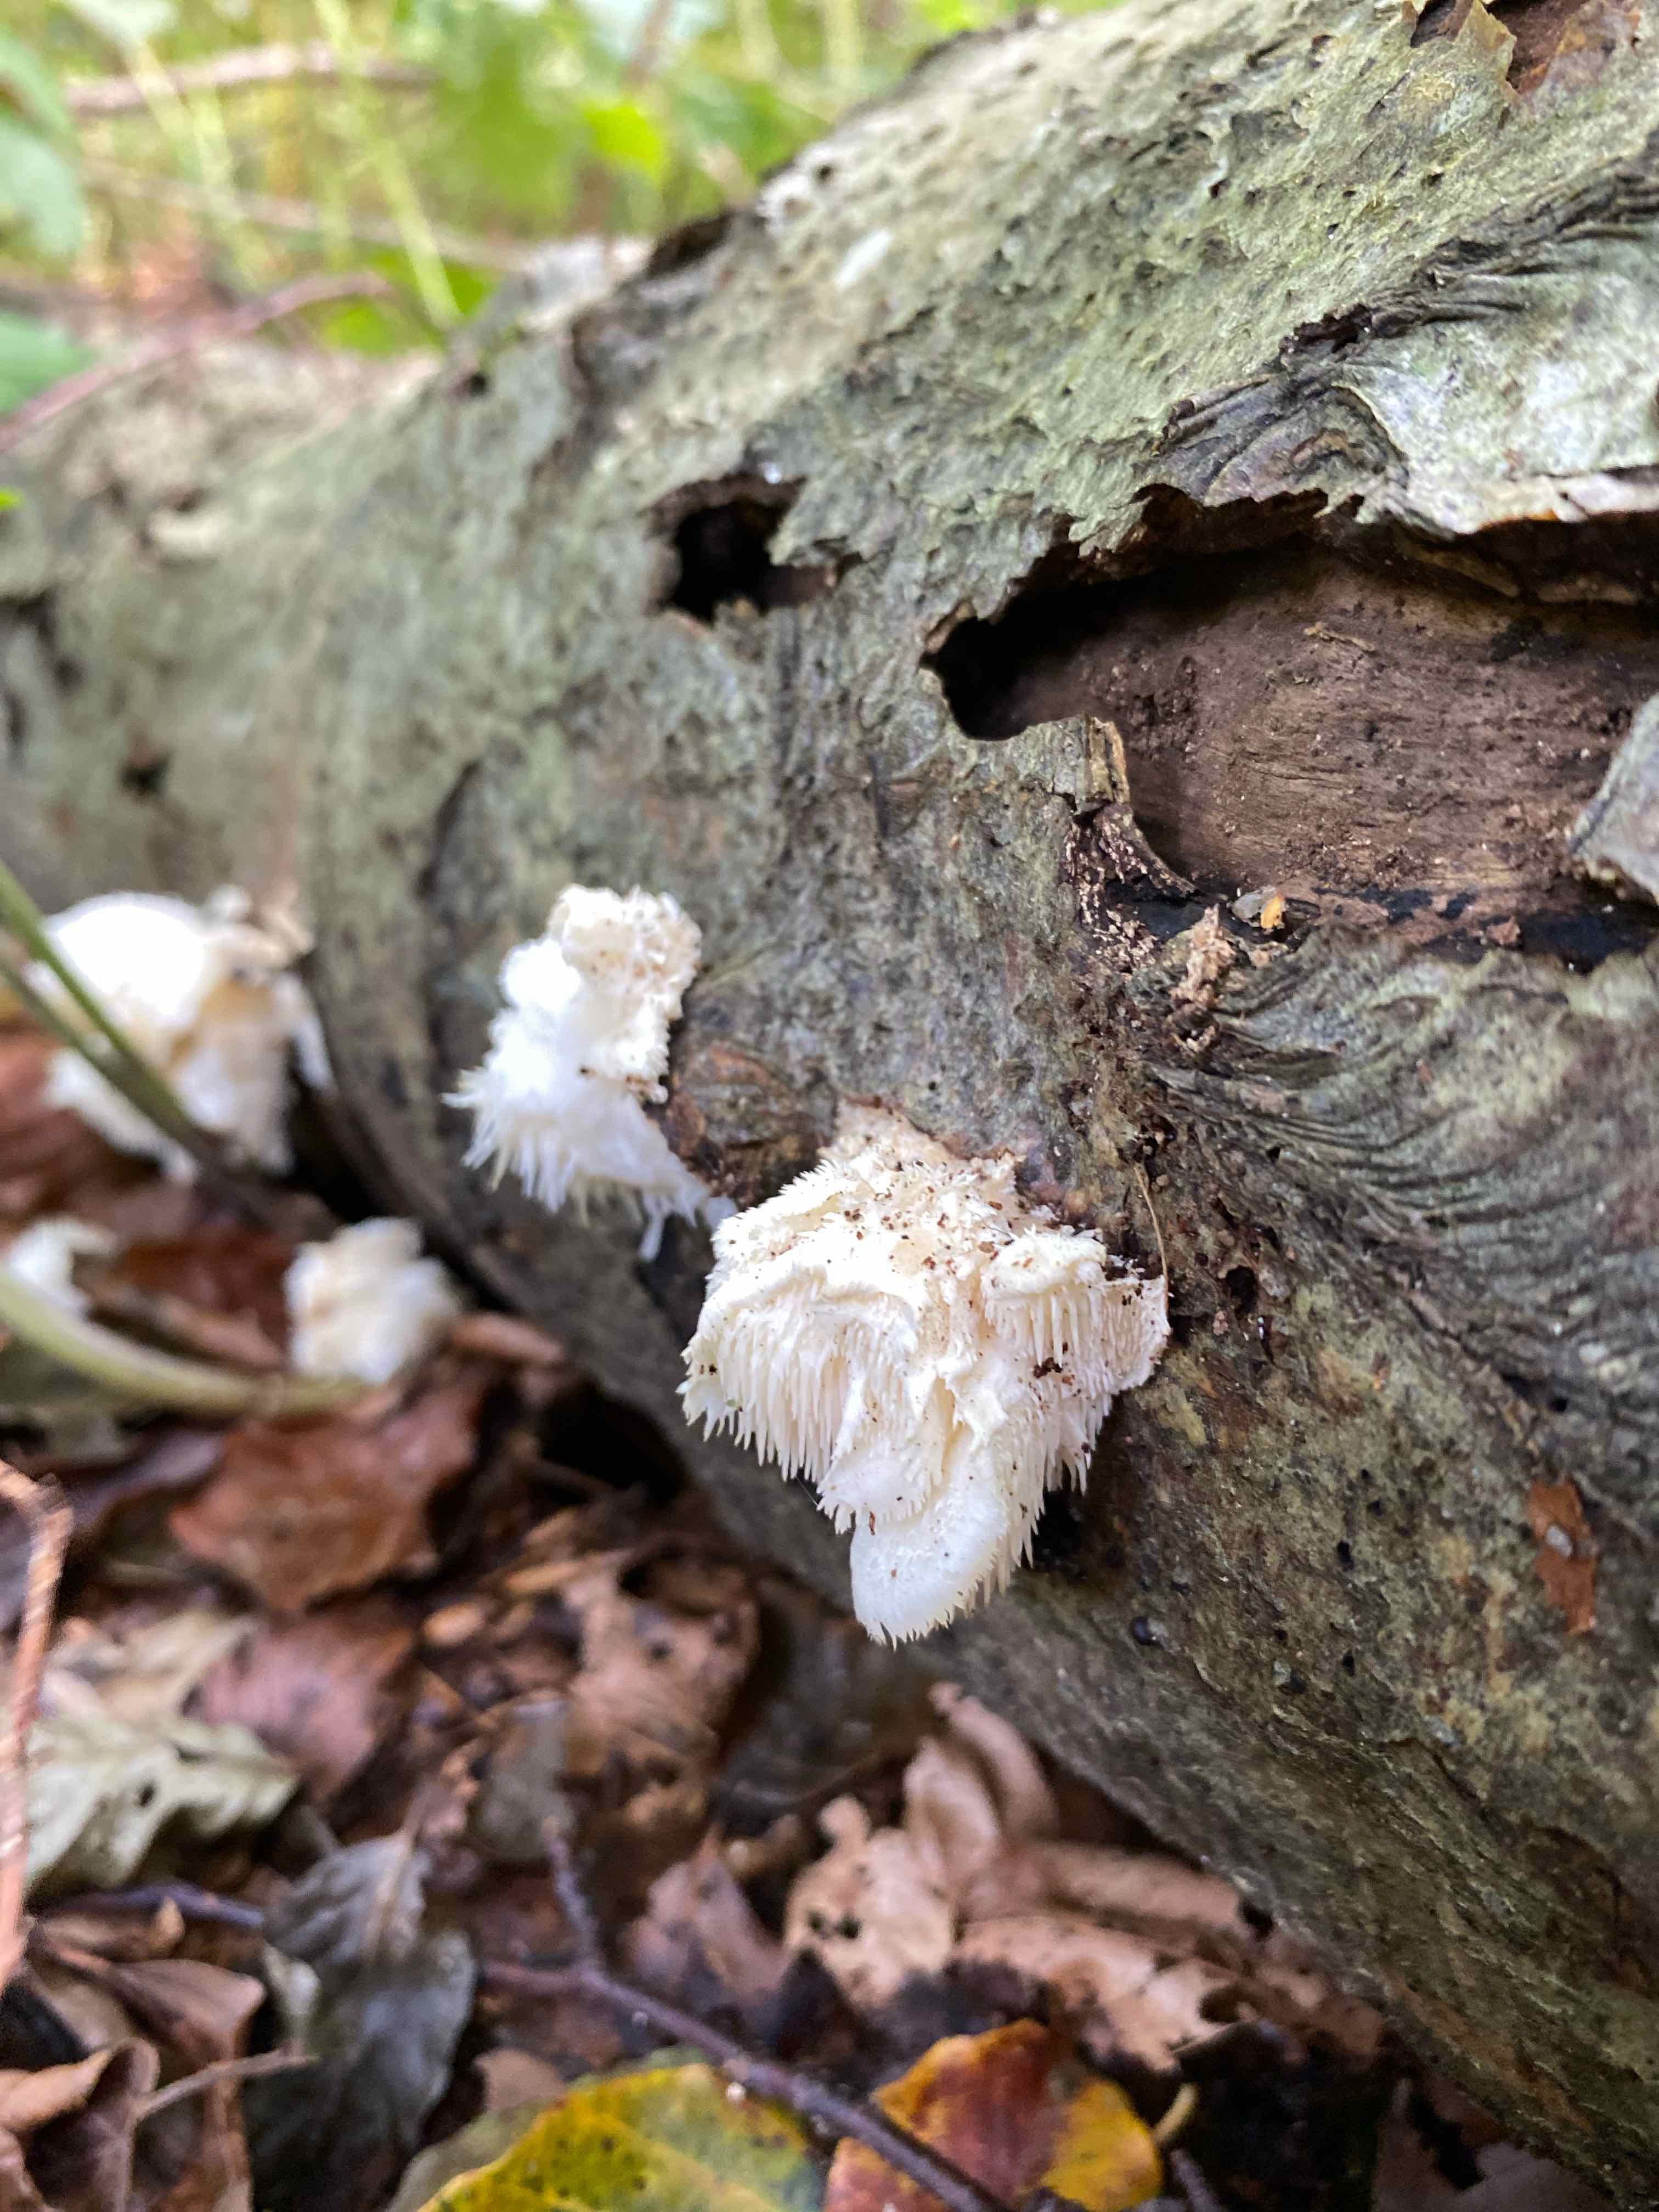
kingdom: Fungi
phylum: Basidiomycota
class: Agaricomycetes
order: Russulales
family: Hericiaceae
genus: Hericium
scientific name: Hericium cirrhatum
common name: børstepigsvamp
